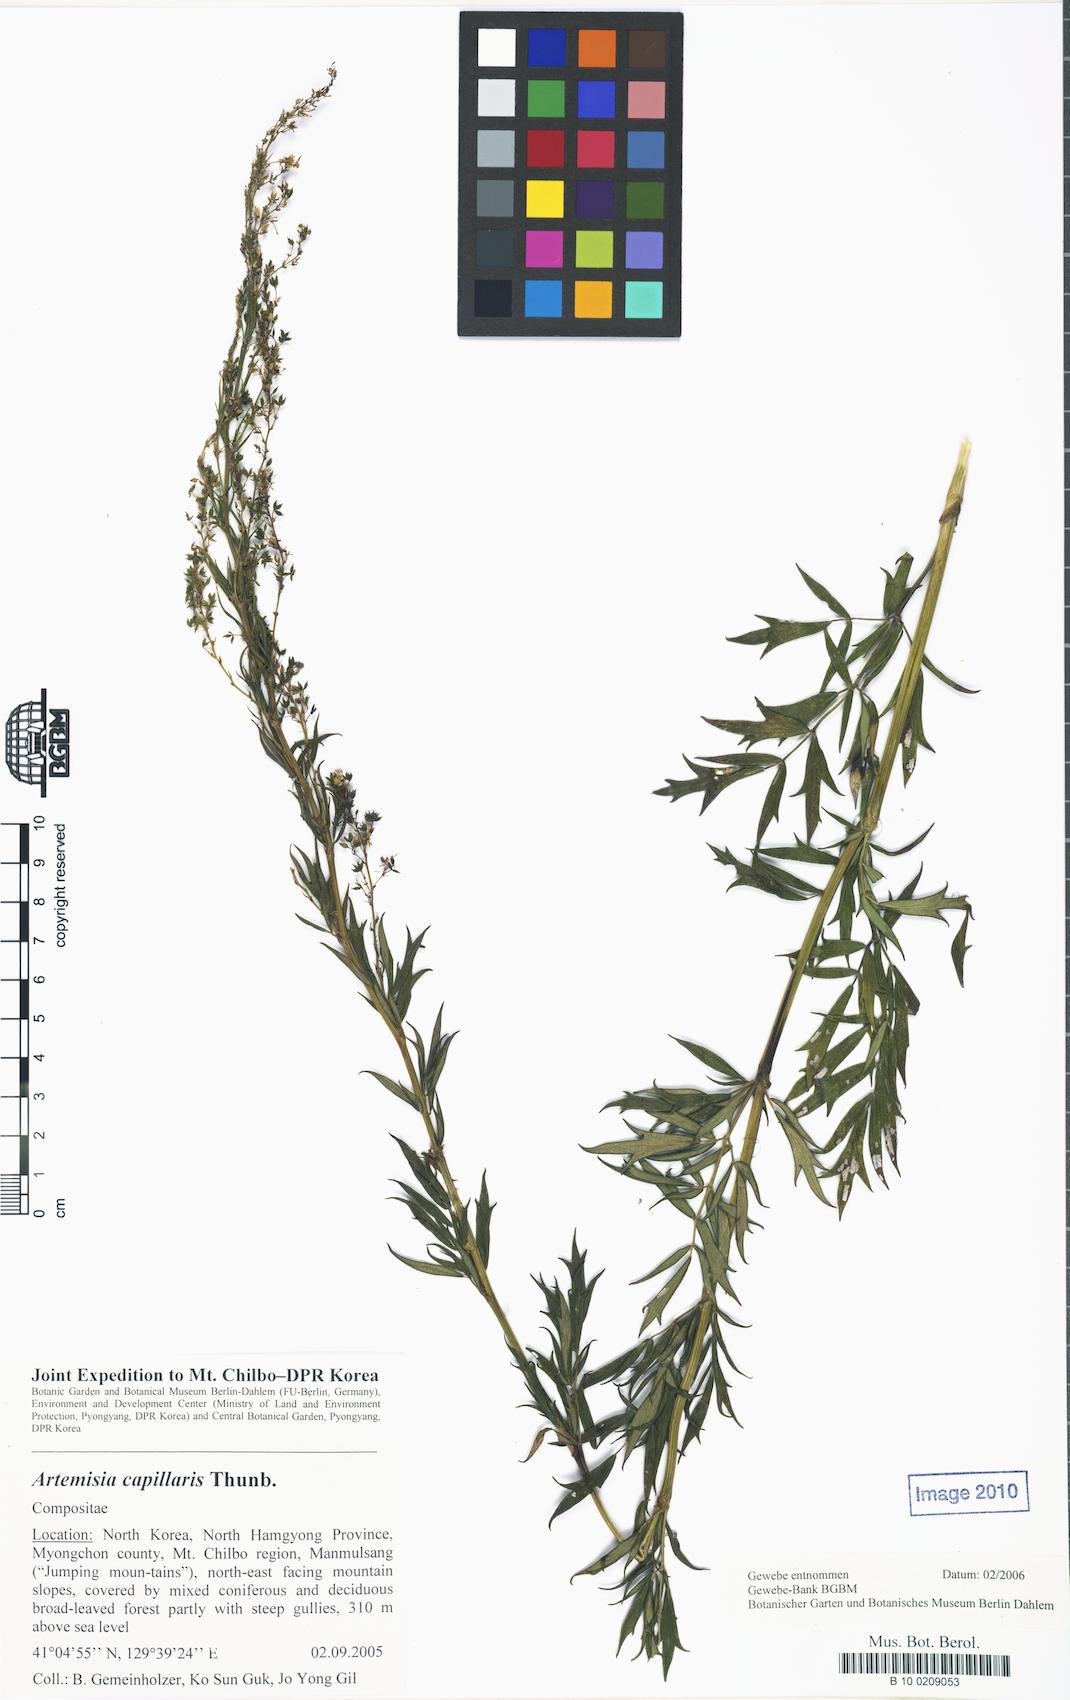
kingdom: Plantae
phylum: Tracheophyta
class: Magnoliopsida
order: Ranunculales
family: Ranunculaceae
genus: Thalictrum
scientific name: Thalictrum simplex
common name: Small meadow-rue
